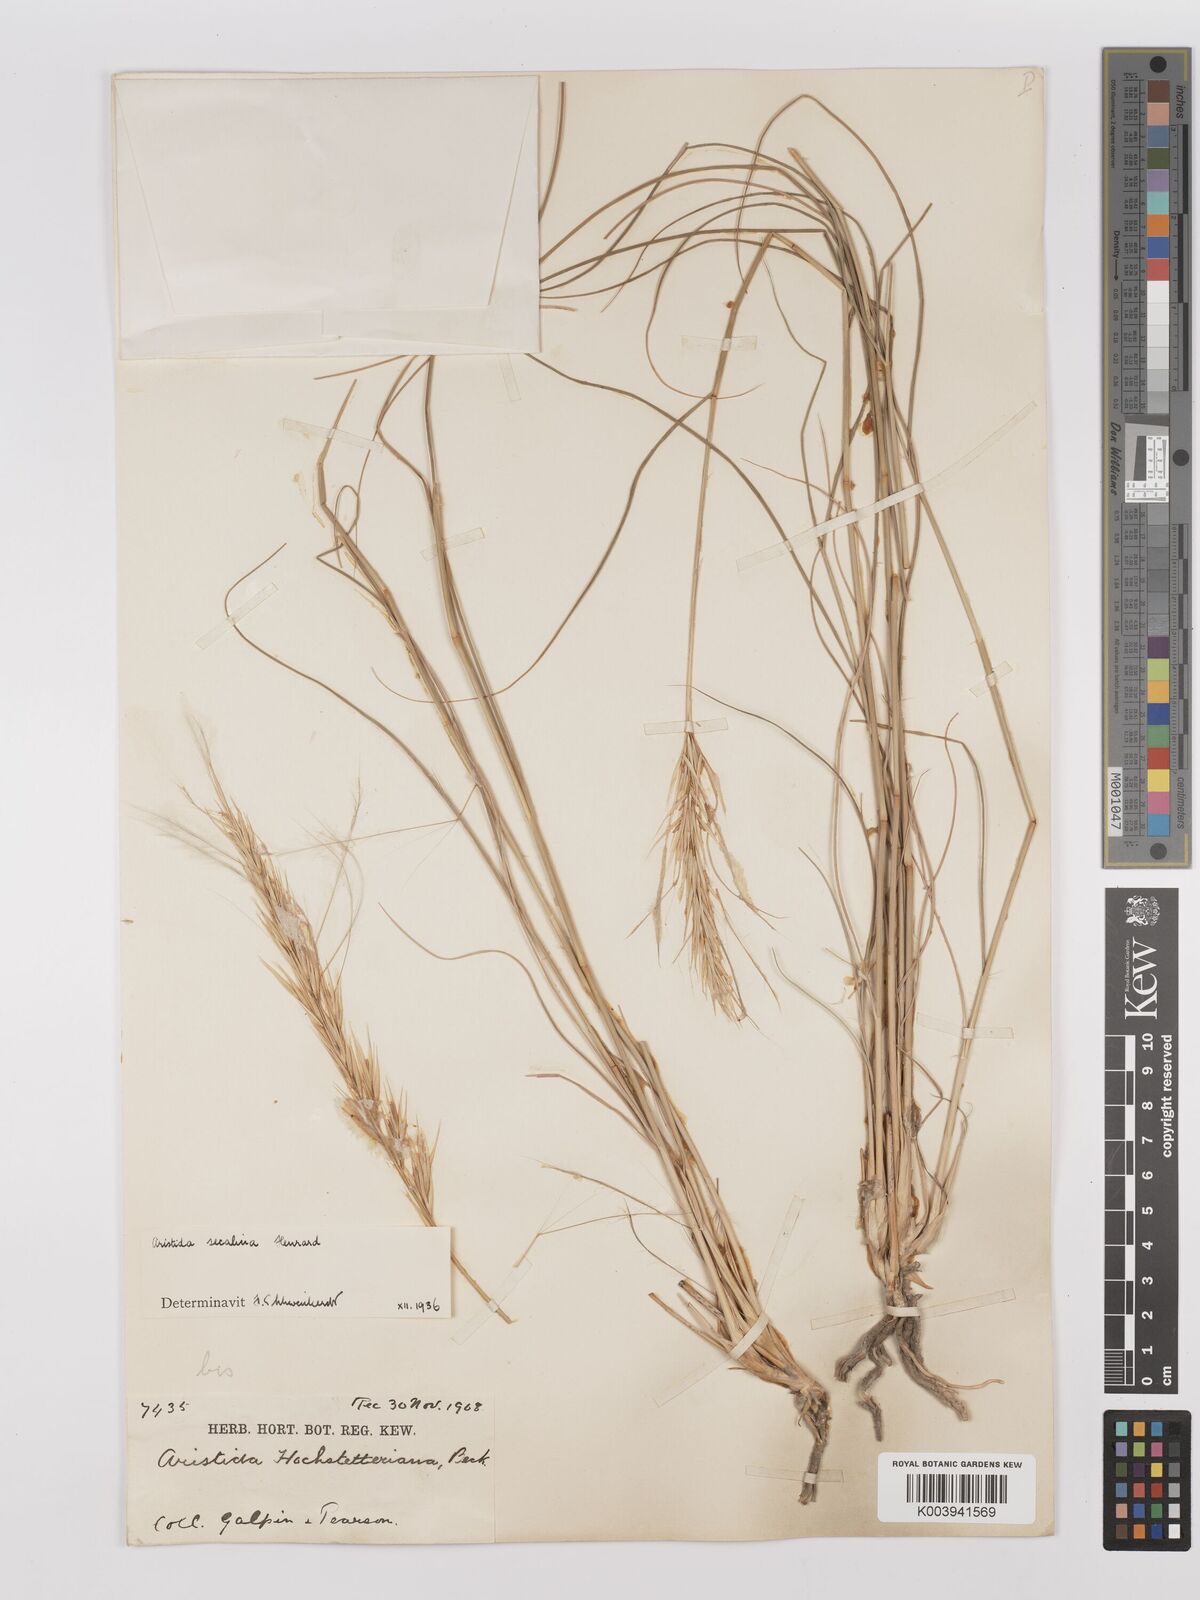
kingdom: Plantae
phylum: Tracheophyta
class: Liliopsida
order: Poales
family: Poaceae
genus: Stipagrostis
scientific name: Stipagrostis hochstetteriana
